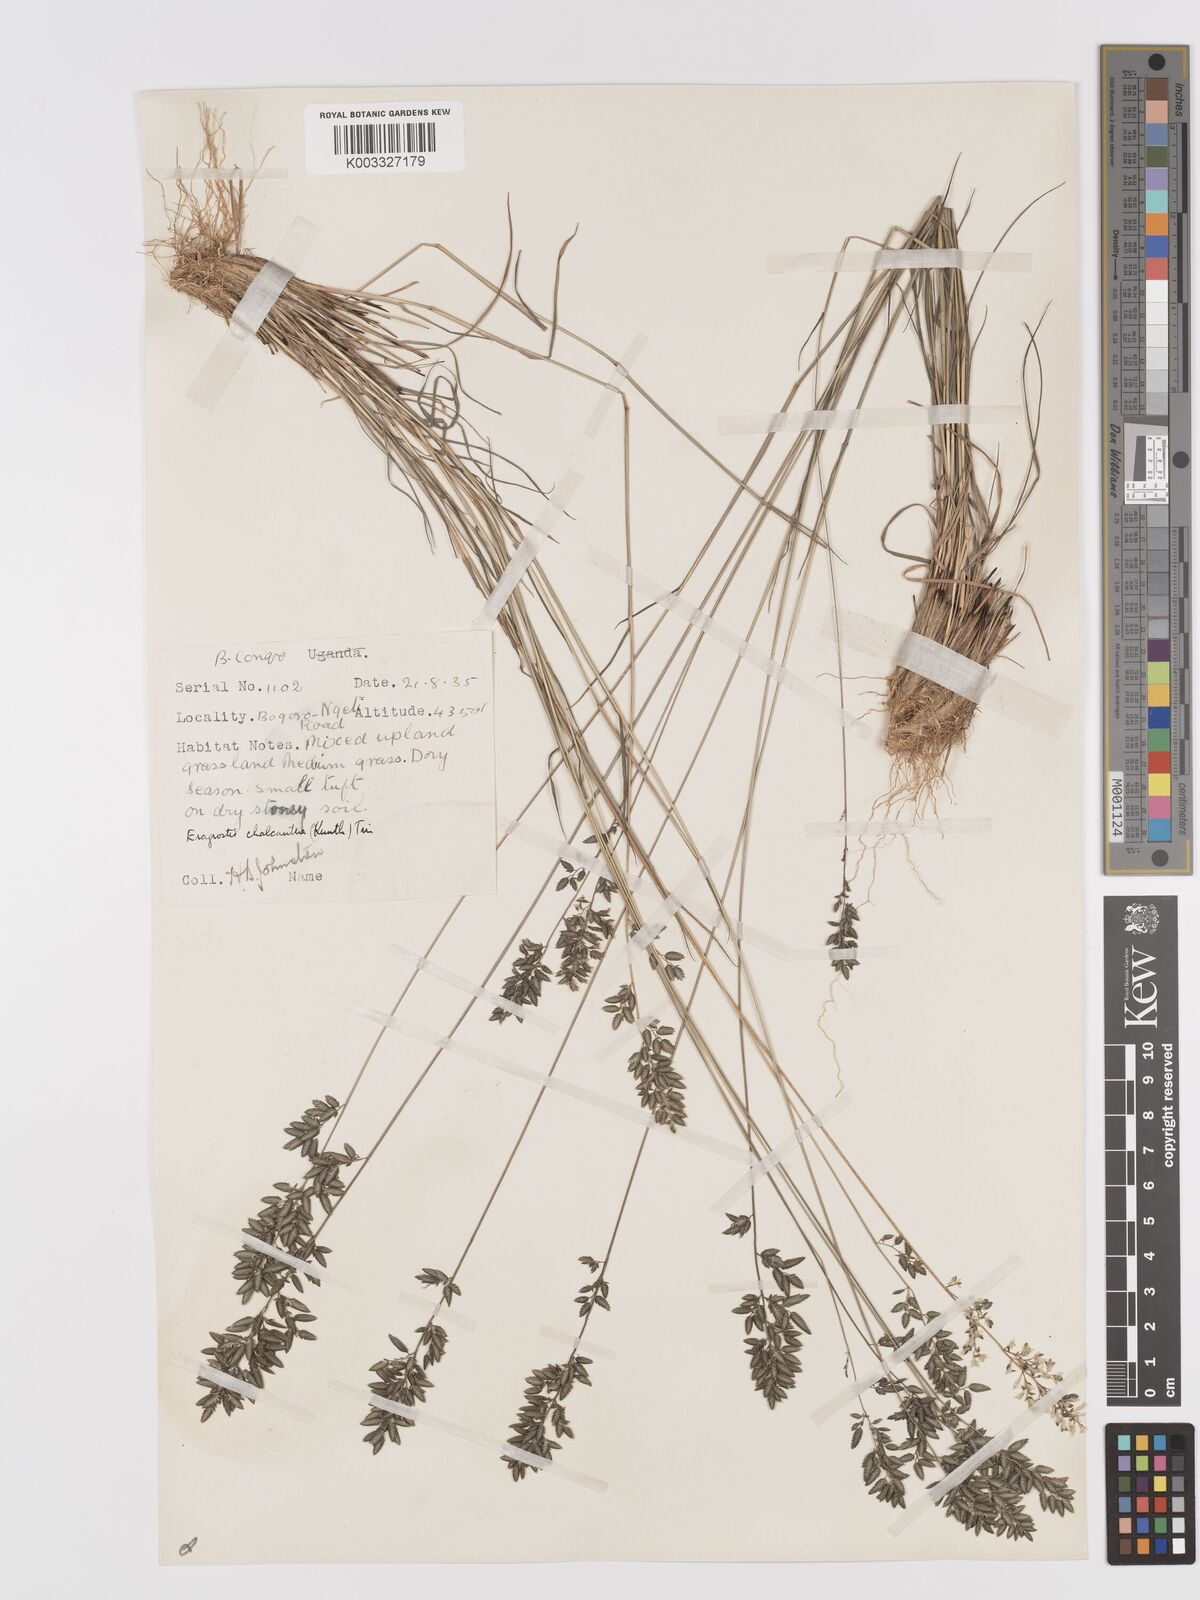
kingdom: Plantae
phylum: Tracheophyta
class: Liliopsida
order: Poales
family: Poaceae
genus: Eragrostis
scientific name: Eragrostis racemosa
